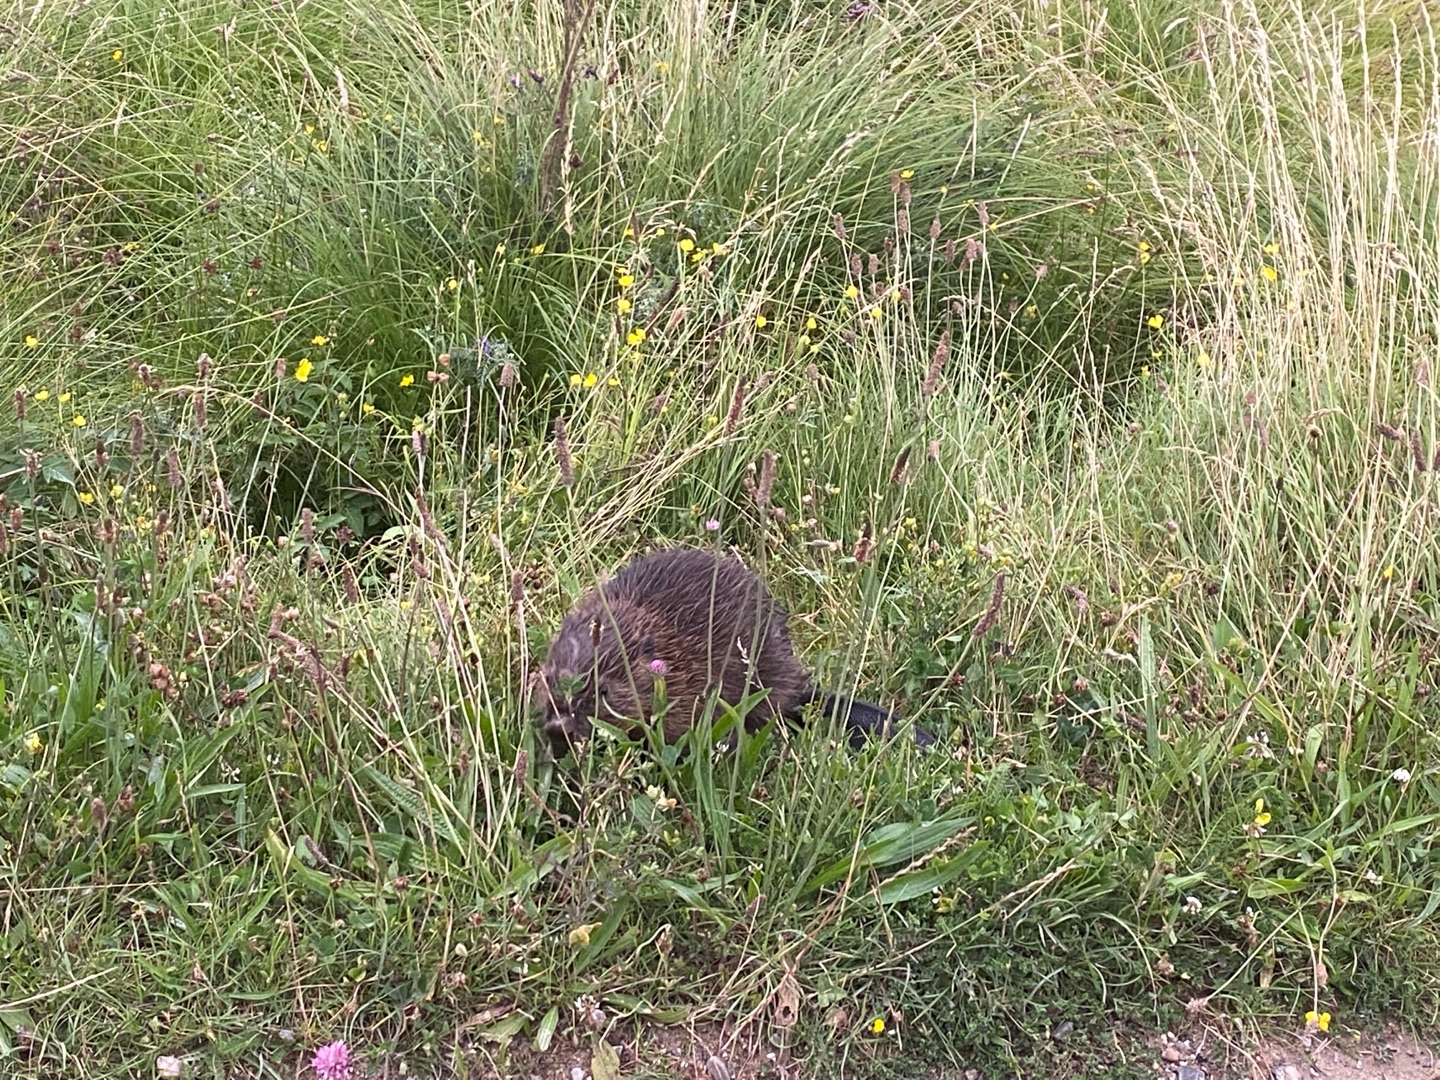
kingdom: Animalia
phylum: Chordata
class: Mammalia
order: Rodentia
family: Castoridae
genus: Castor
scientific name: Castor fiber
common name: Bæver
